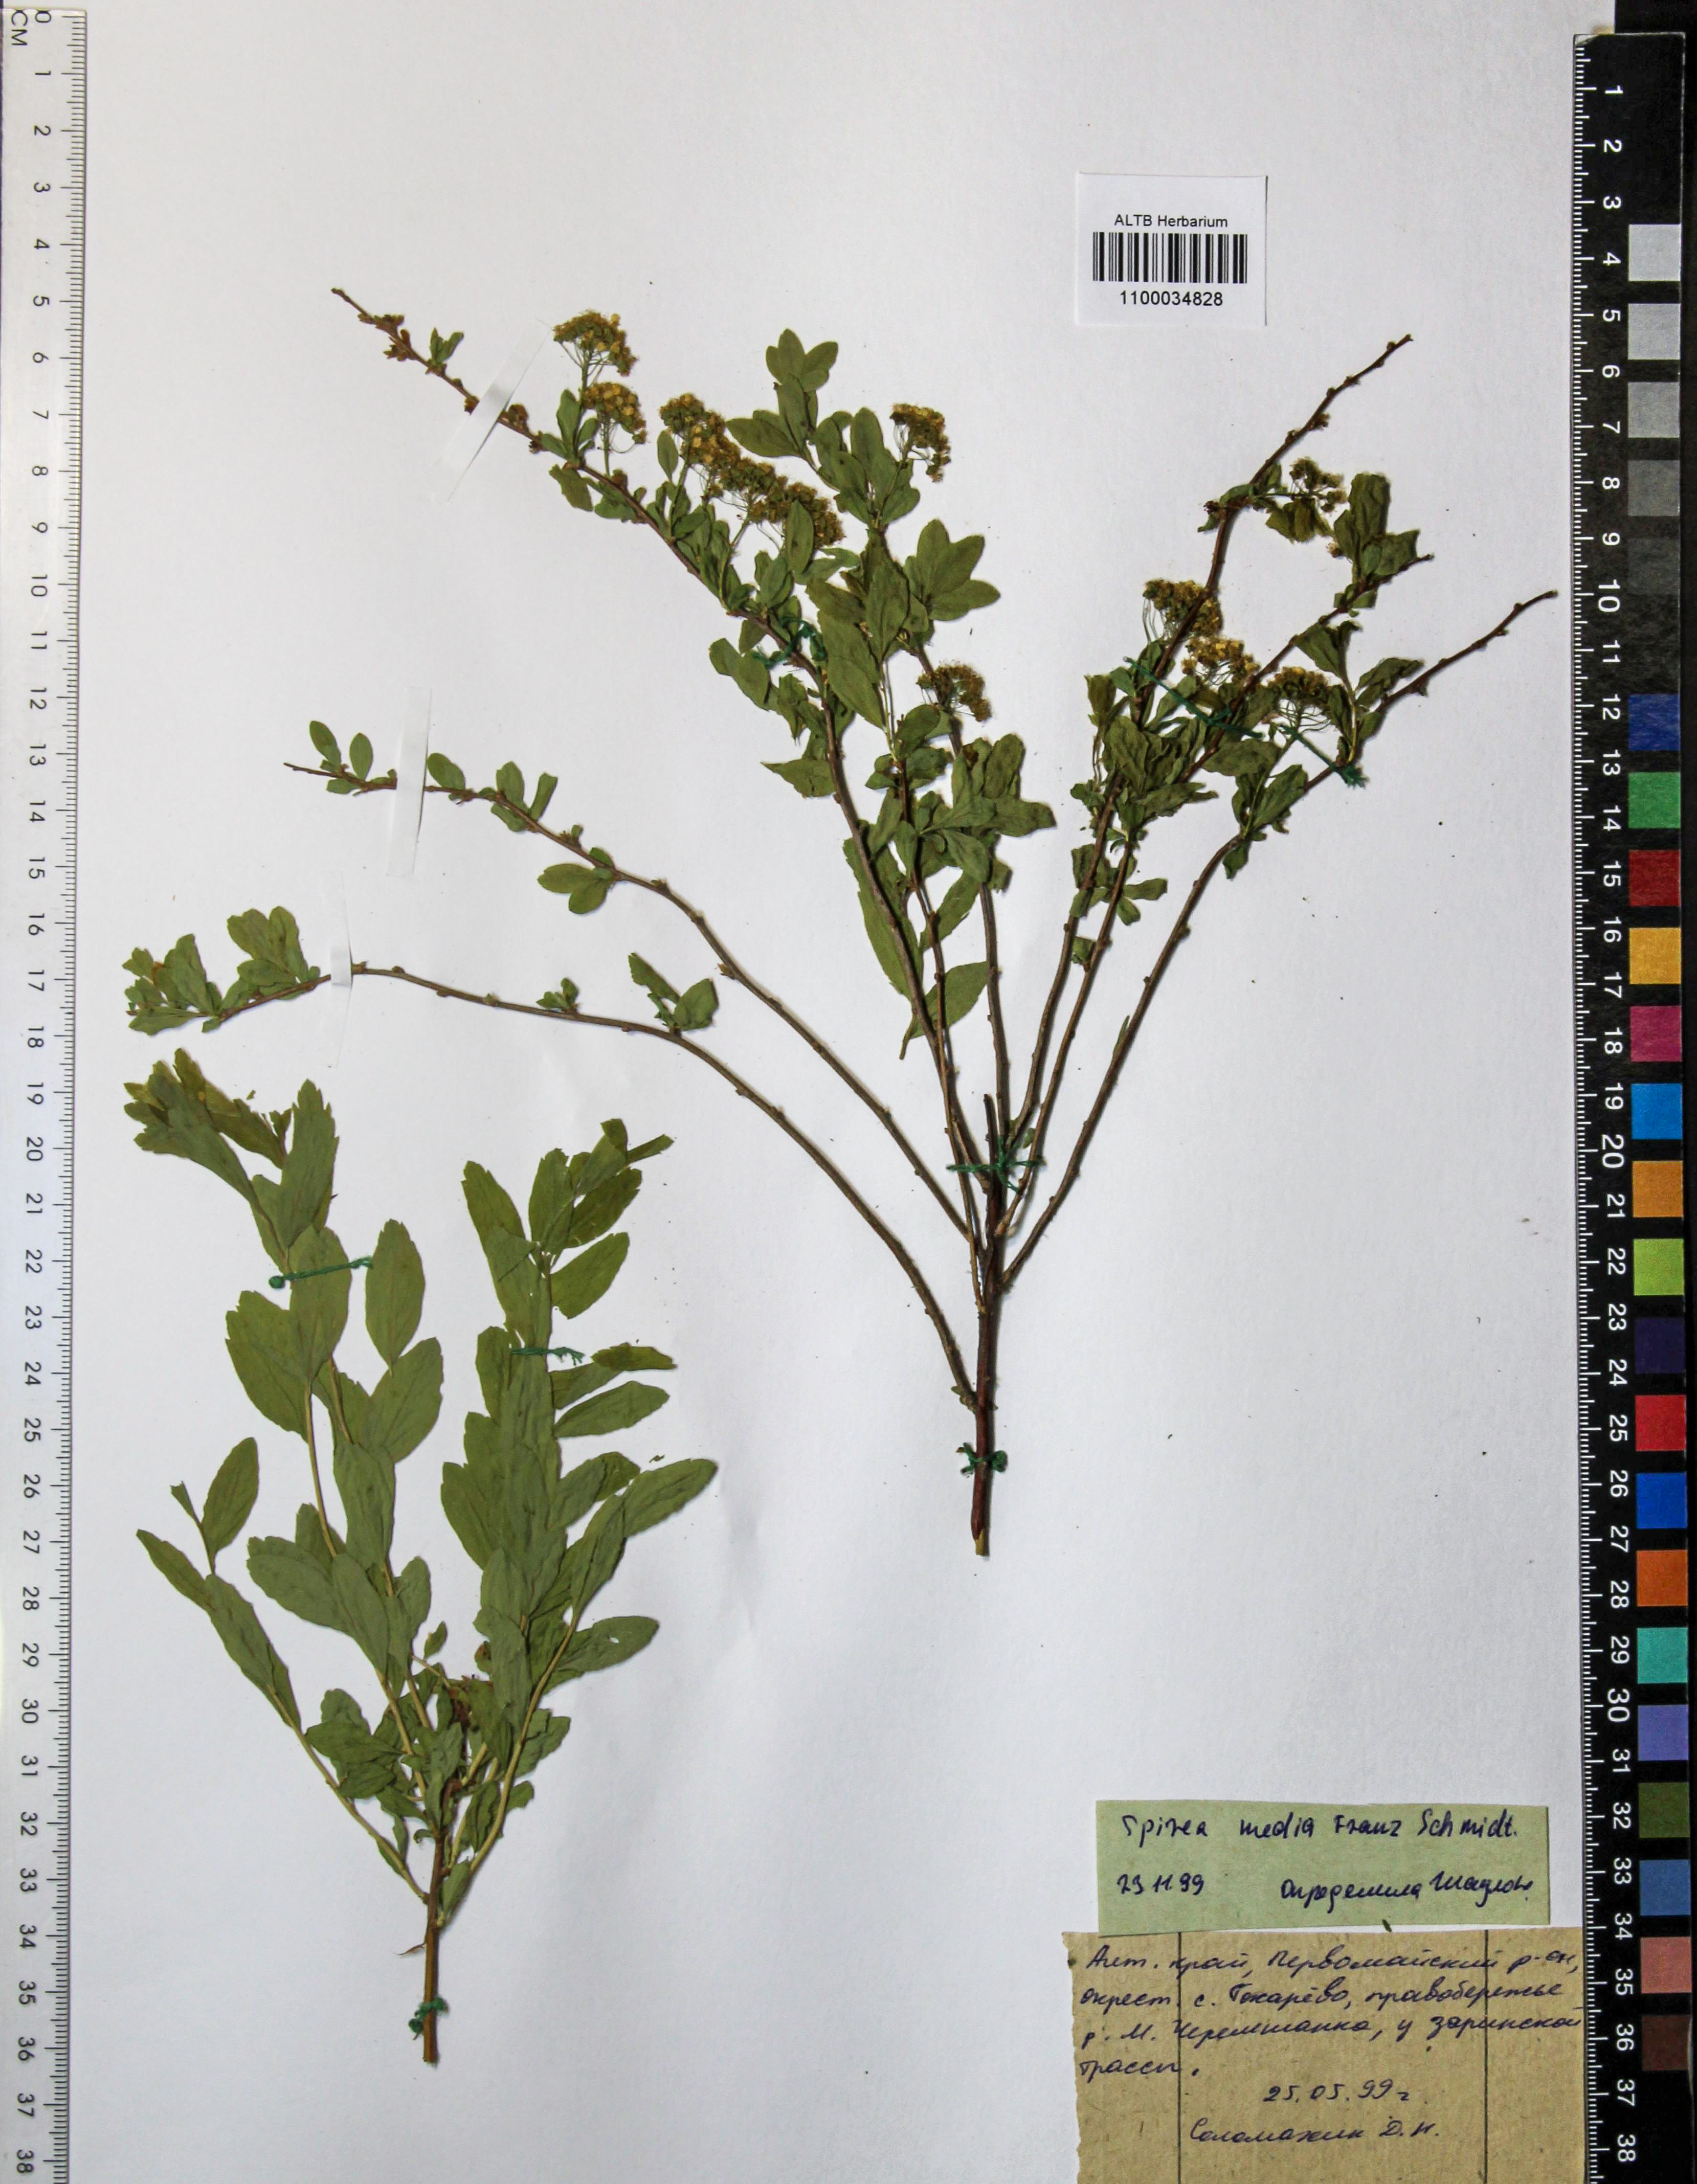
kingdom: Plantae
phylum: Tracheophyta
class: Magnoliopsida
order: Rosales
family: Rosaceae
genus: Spiraea
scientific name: Spiraea media
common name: Russian spiraea
